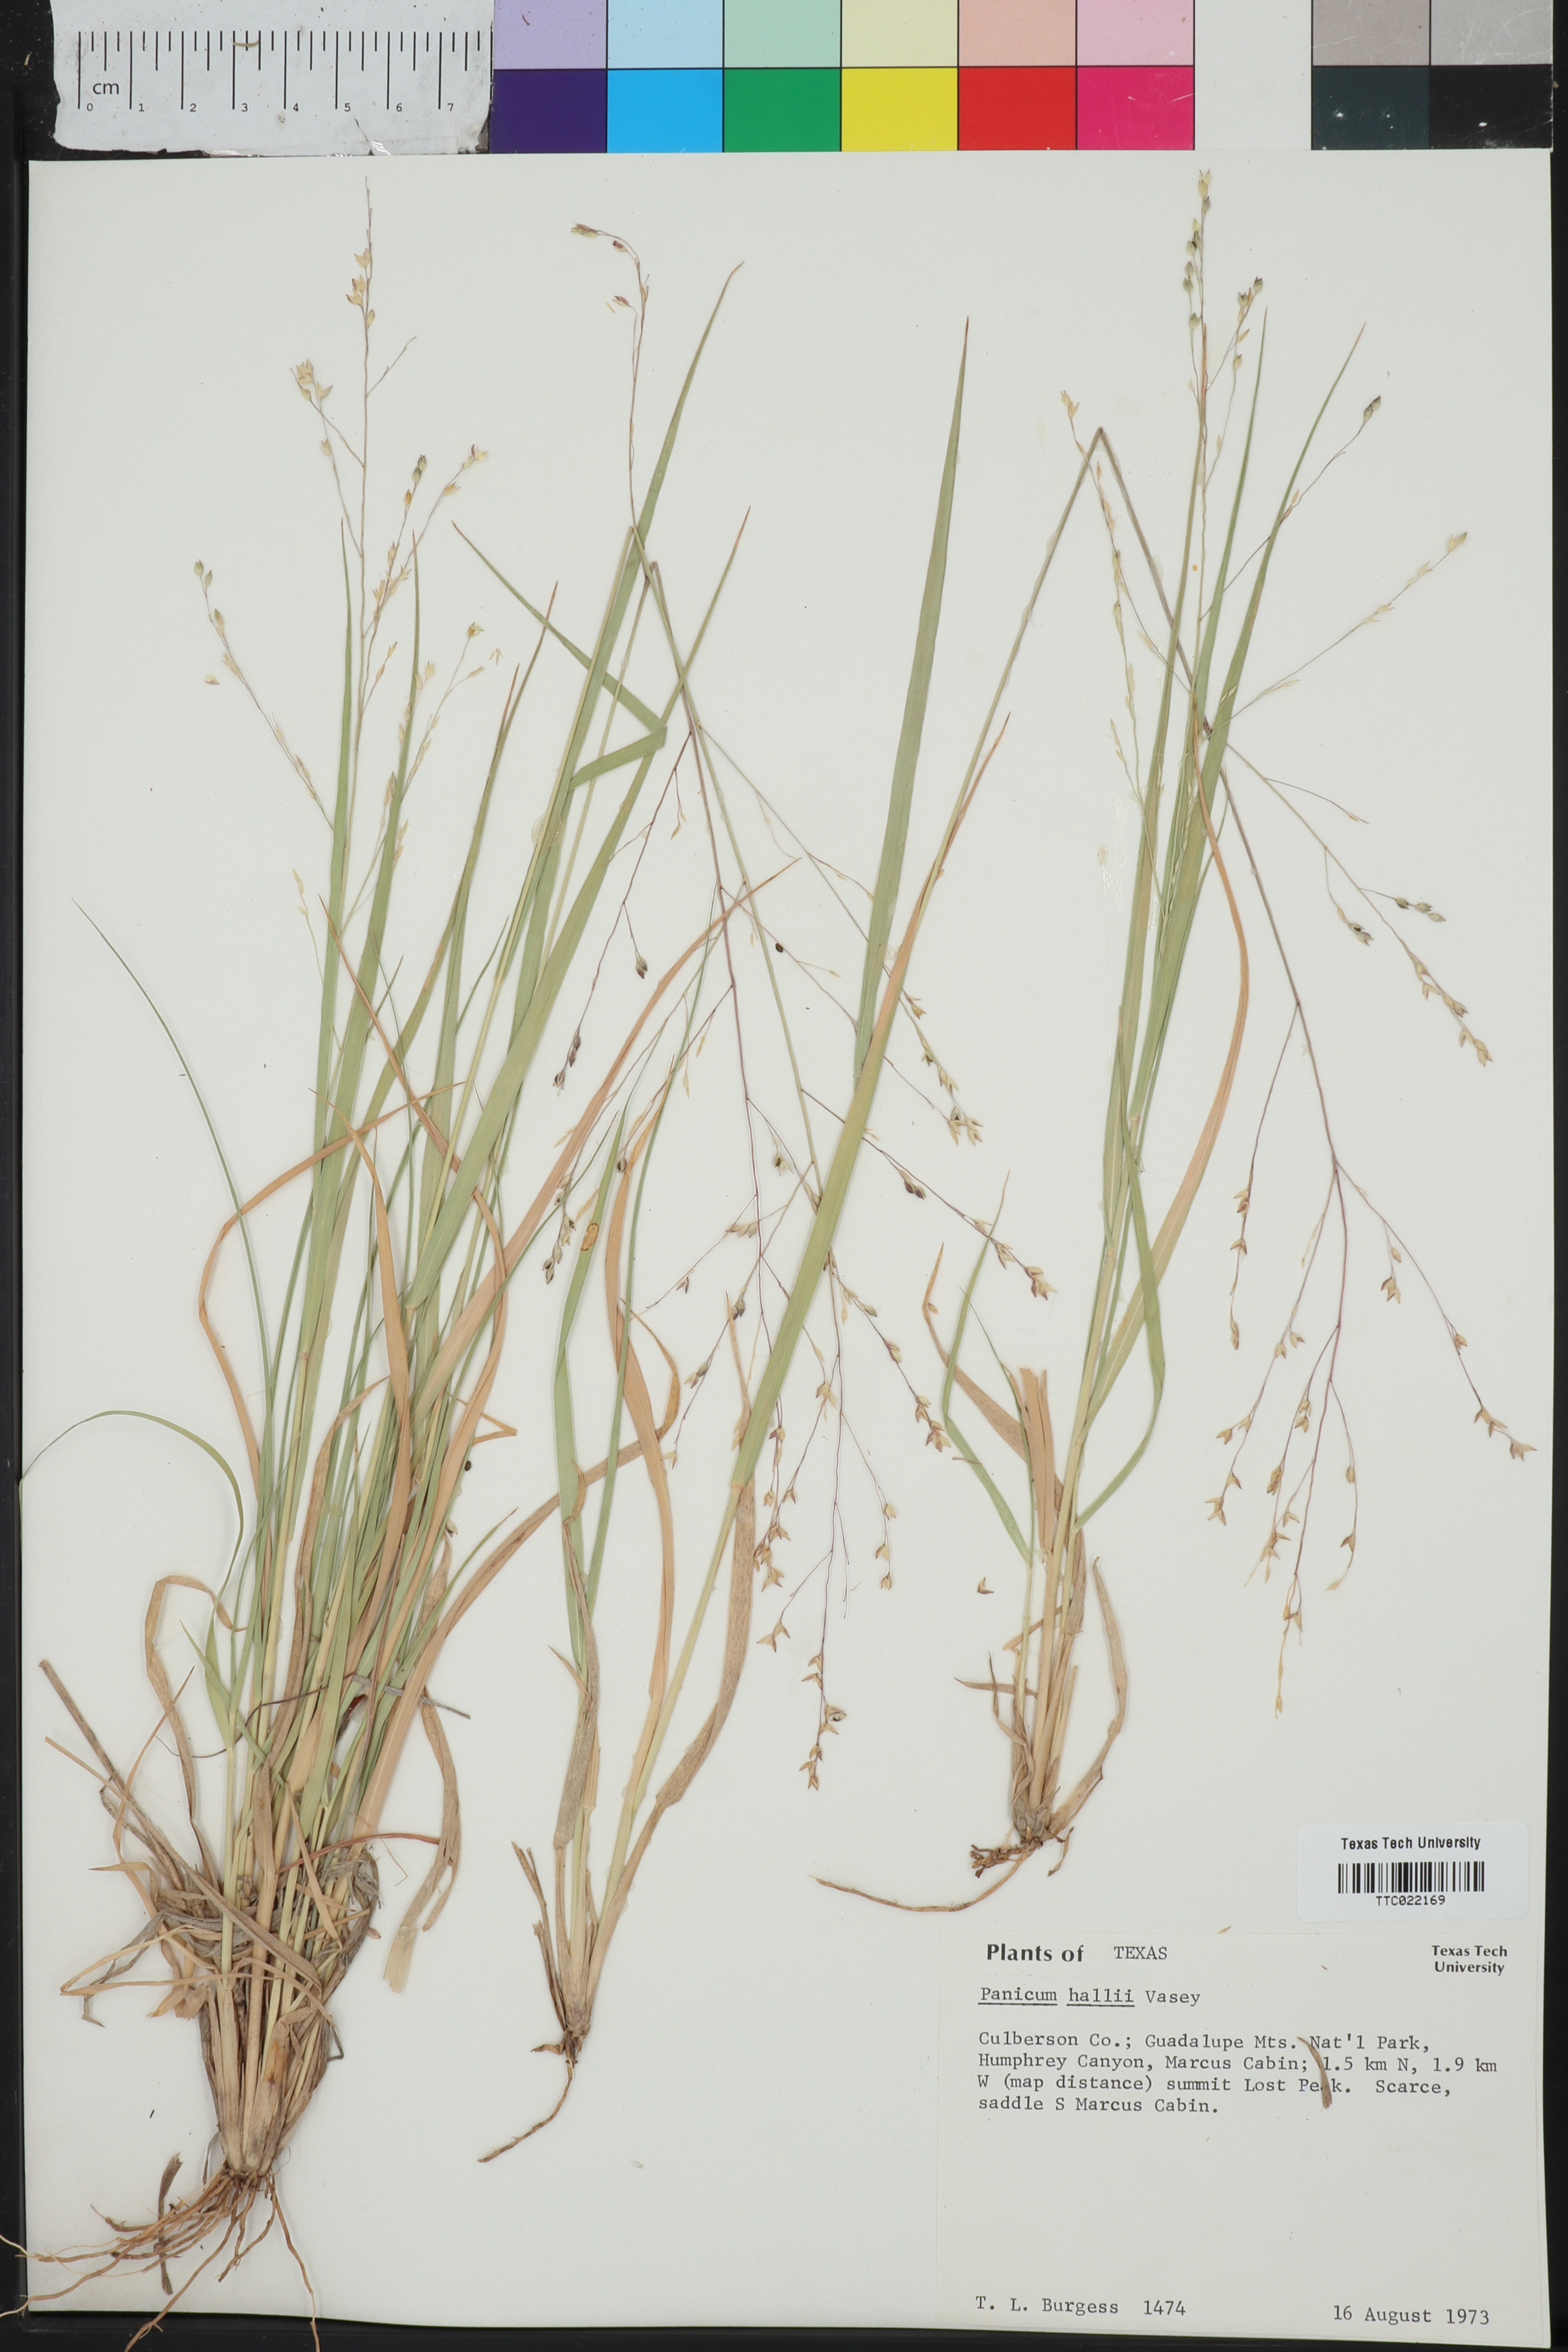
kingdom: Plantae
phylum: Tracheophyta
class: Liliopsida
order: Poales
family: Poaceae
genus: Panicum
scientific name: Panicum hallii
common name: Hall's witchgrass
